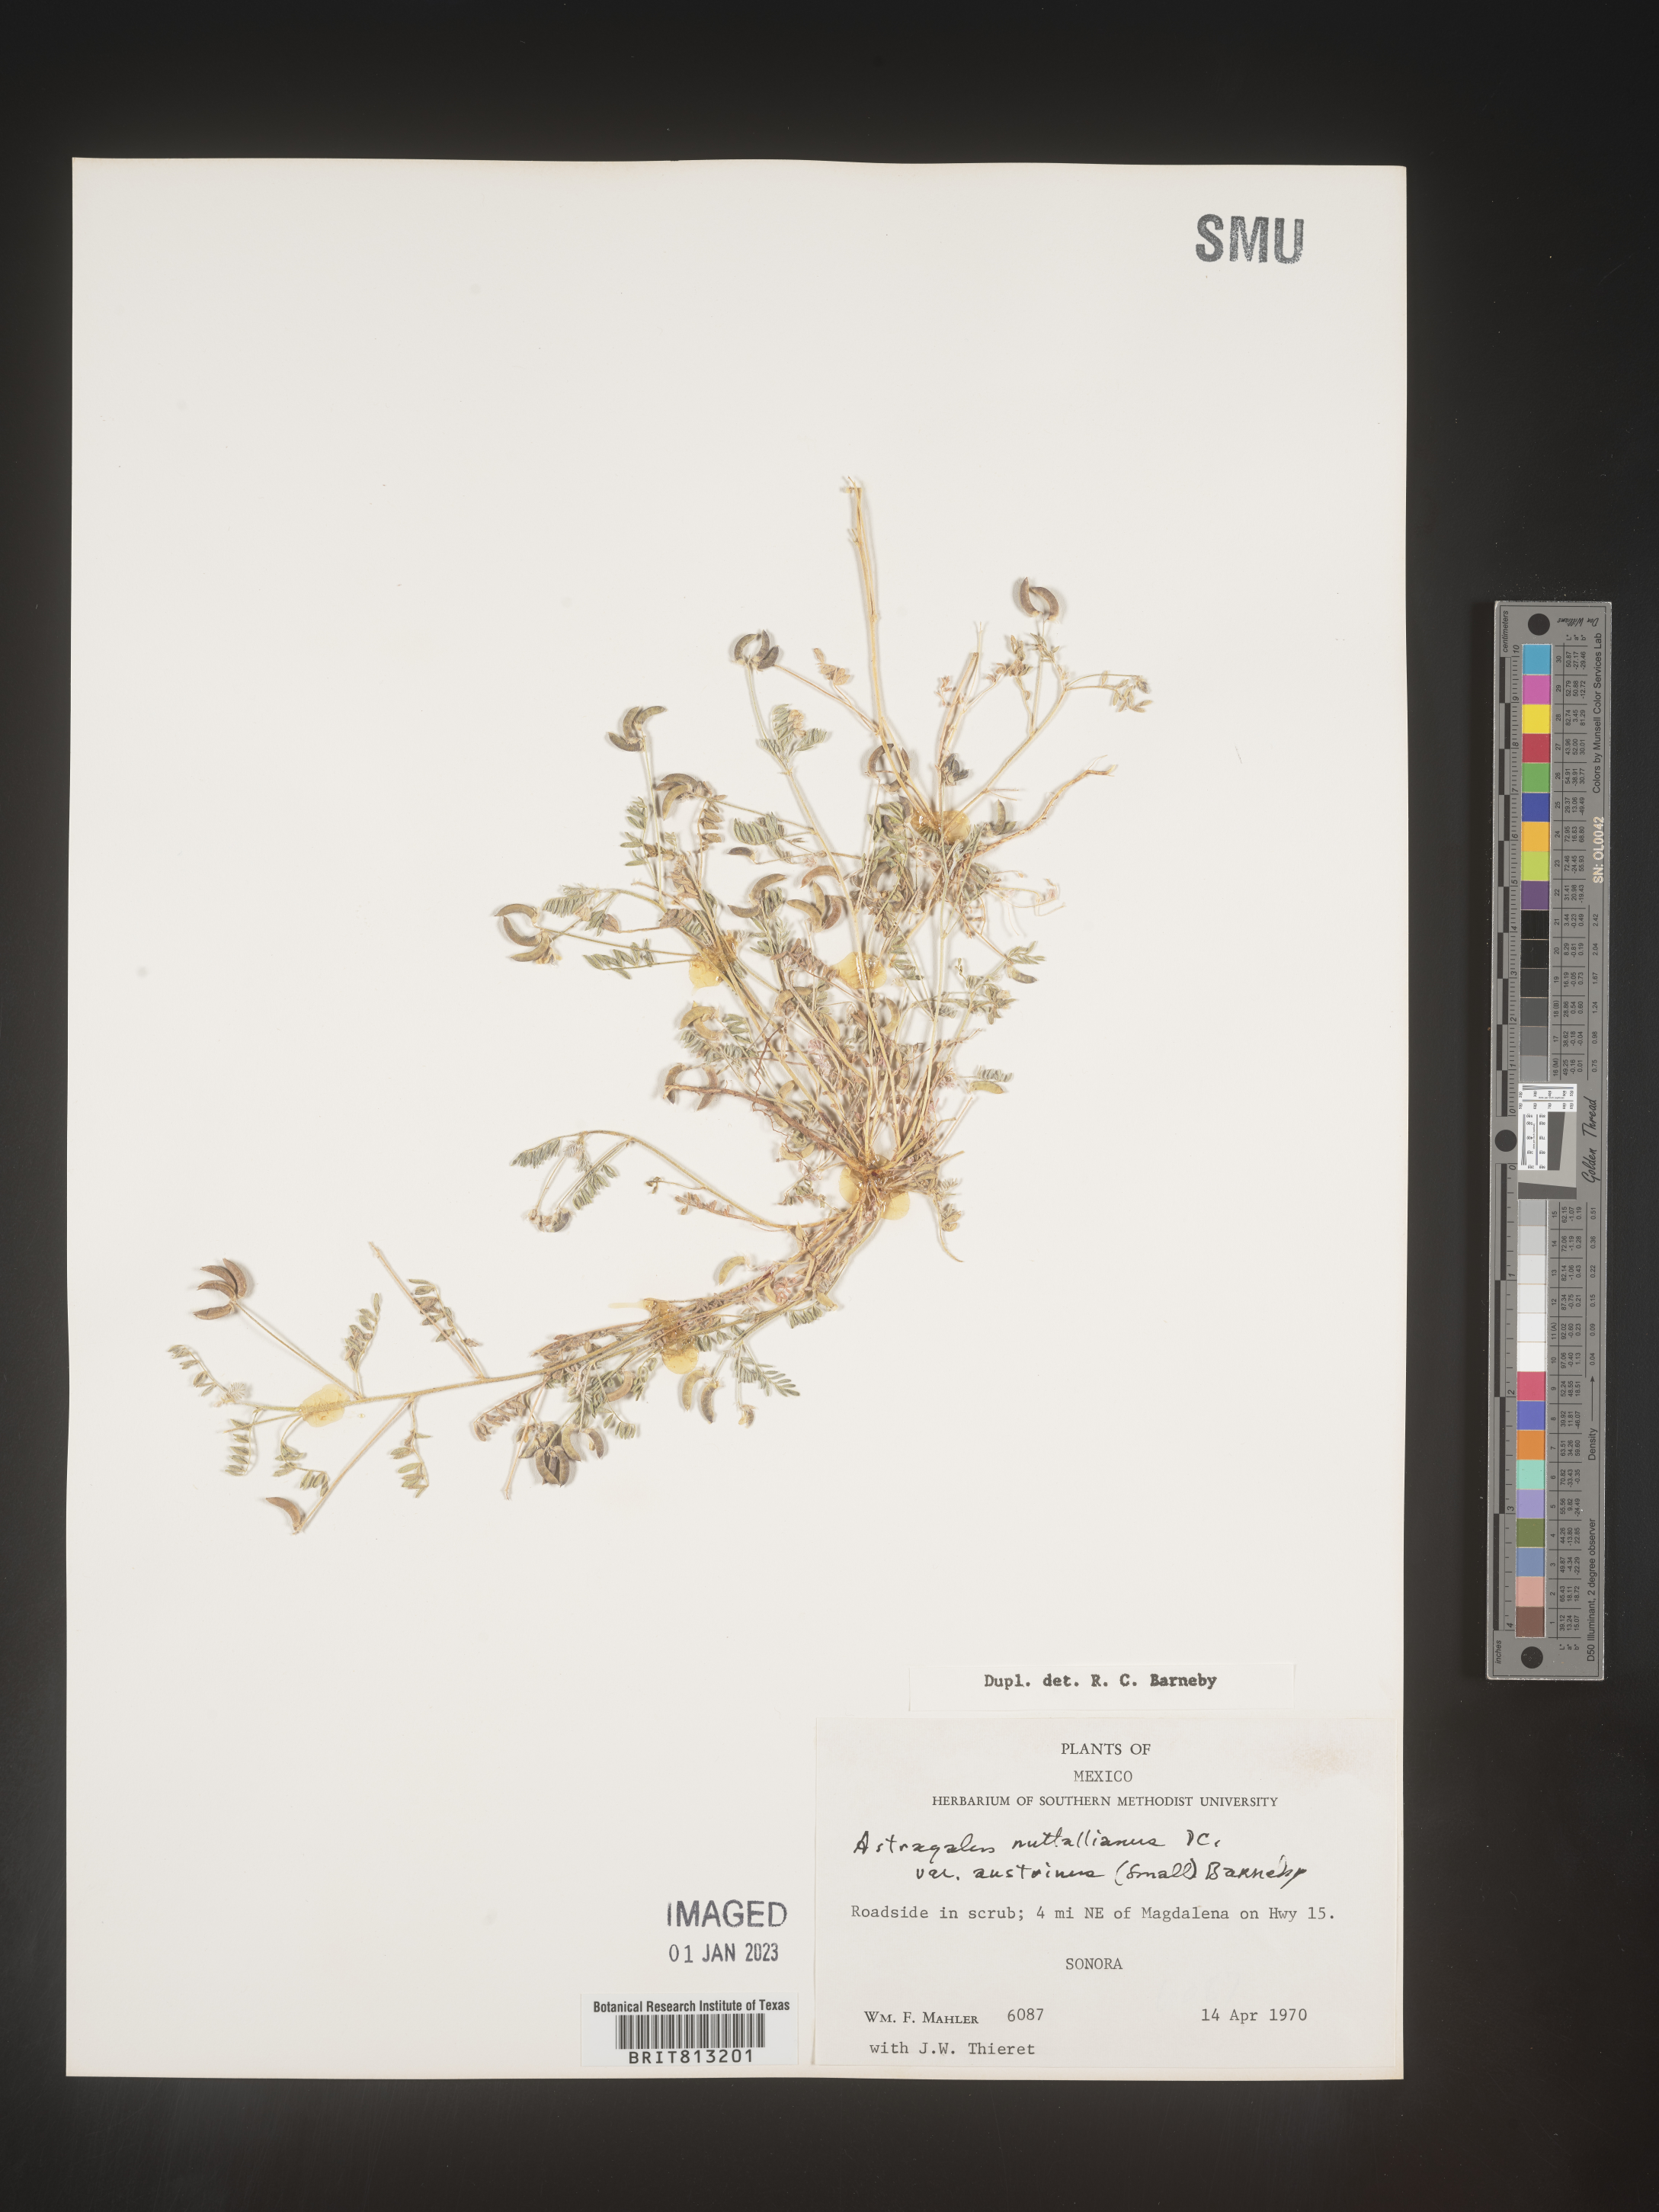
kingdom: Plantae
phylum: Tracheophyta
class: Magnoliopsida
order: Fabales
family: Fabaceae
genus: Astragalus
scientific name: Astragalus
